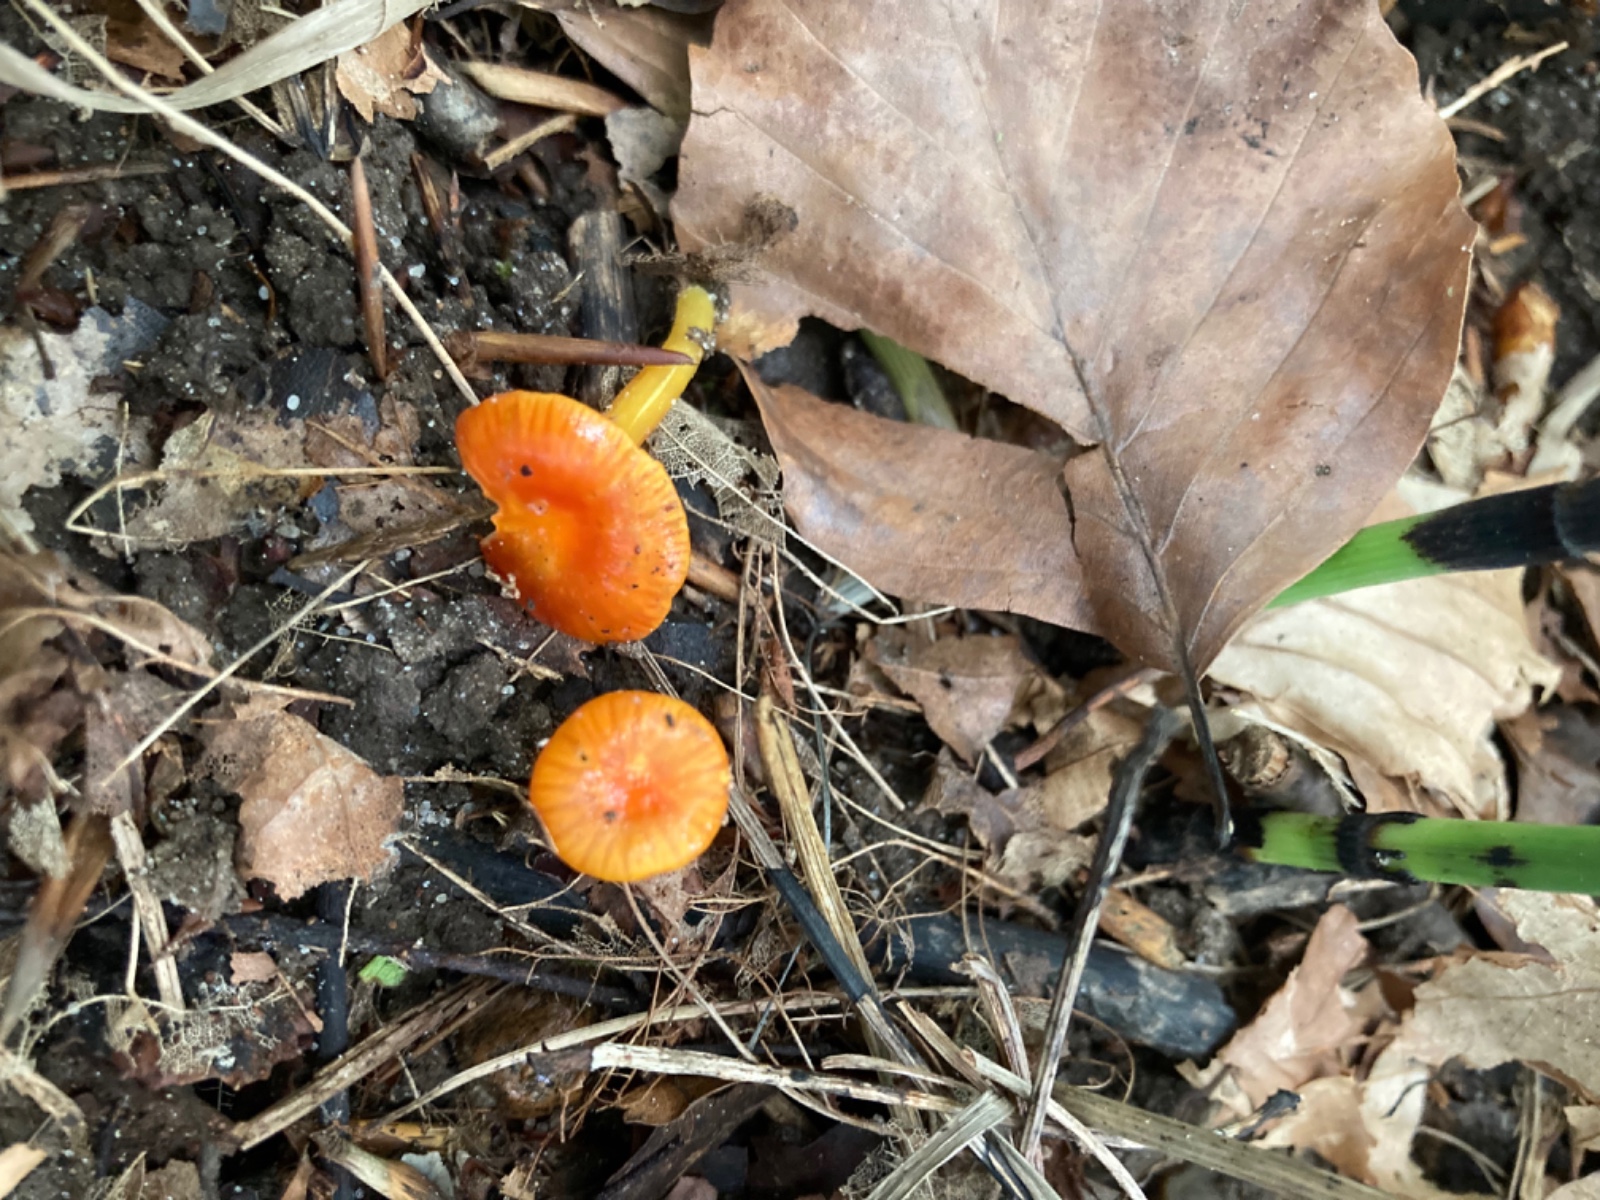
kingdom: Fungi
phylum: Basidiomycota
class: Agaricomycetes
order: Agaricales
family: Hygrophoraceae
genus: Hygrocybe
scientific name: Hygrocybe glutinipes
